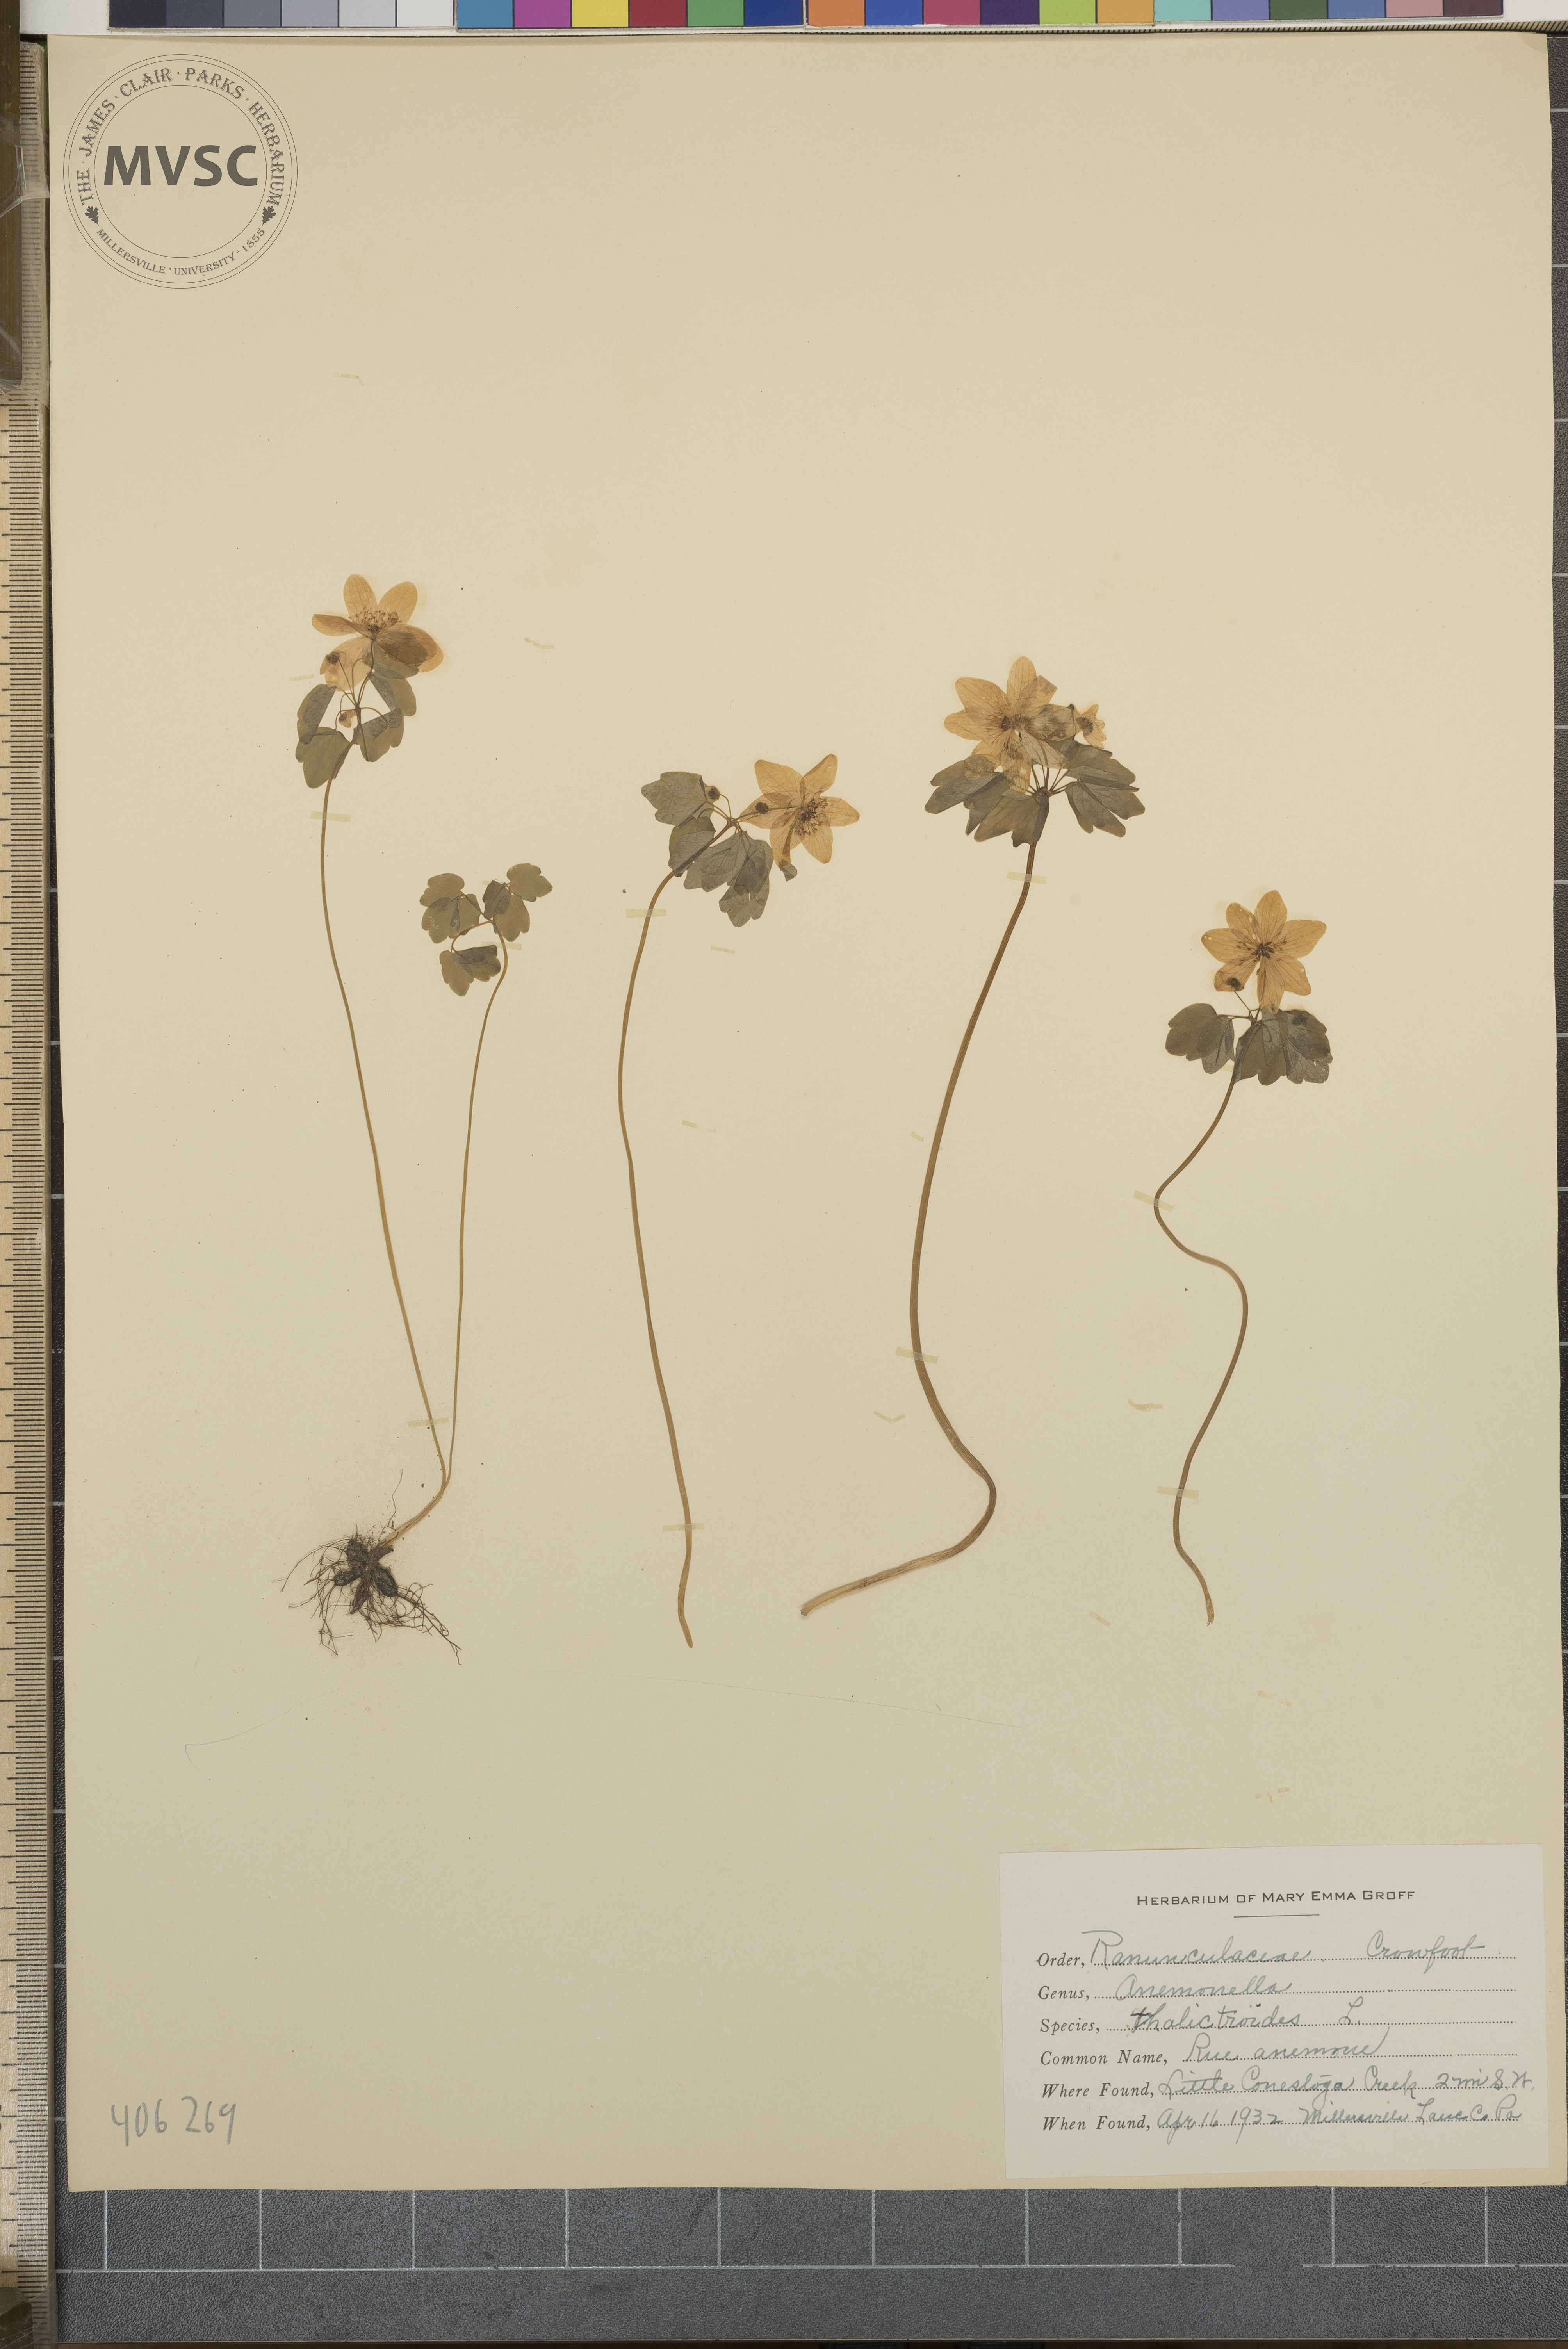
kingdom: Plantae
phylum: Tracheophyta
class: Magnoliopsida
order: Ranunculales
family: Ranunculaceae
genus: Thalictrum
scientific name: Thalictrum thalictroides
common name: Rue anemone
